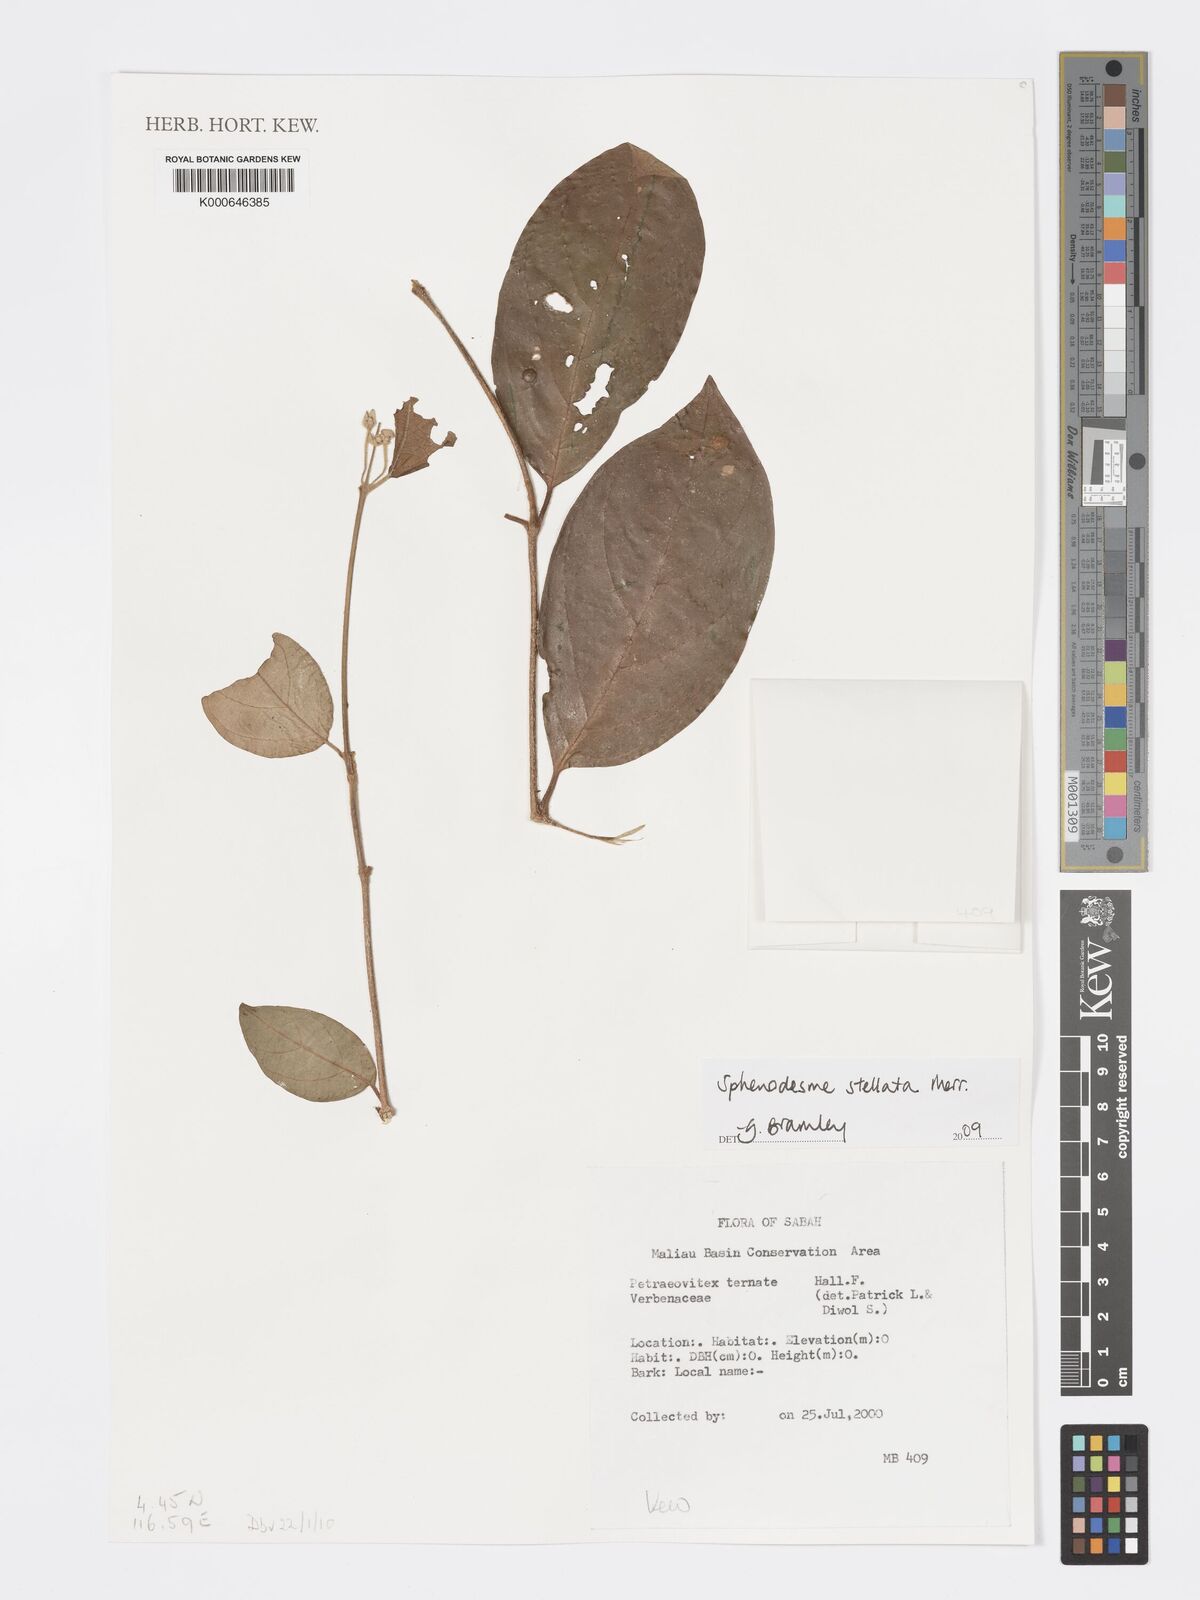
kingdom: Plantae
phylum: Tracheophyta
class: Magnoliopsida
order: Lamiales
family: Lamiaceae
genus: Sphenodesme
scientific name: Sphenodesme stellata
